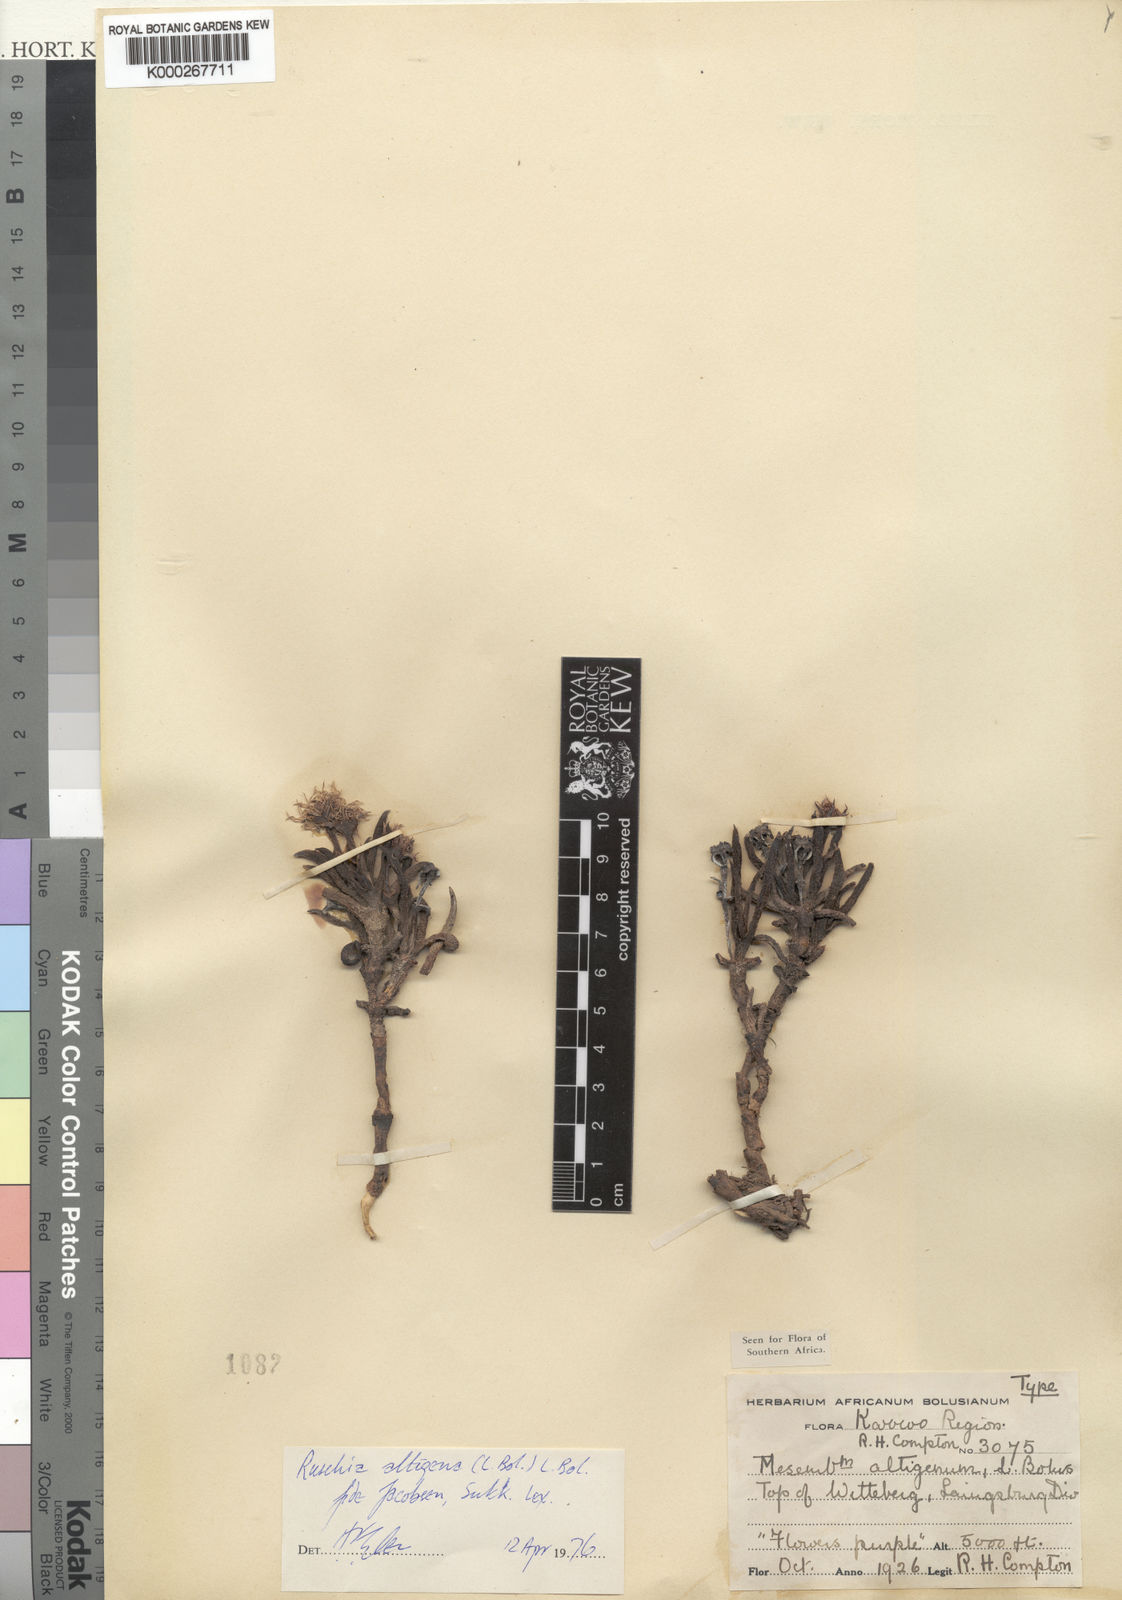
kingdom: Plantae
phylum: Tracheophyta
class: Magnoliopsida
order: Caryophyllales
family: Aizoaceae
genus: Ruschia
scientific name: Ruschia altigena
